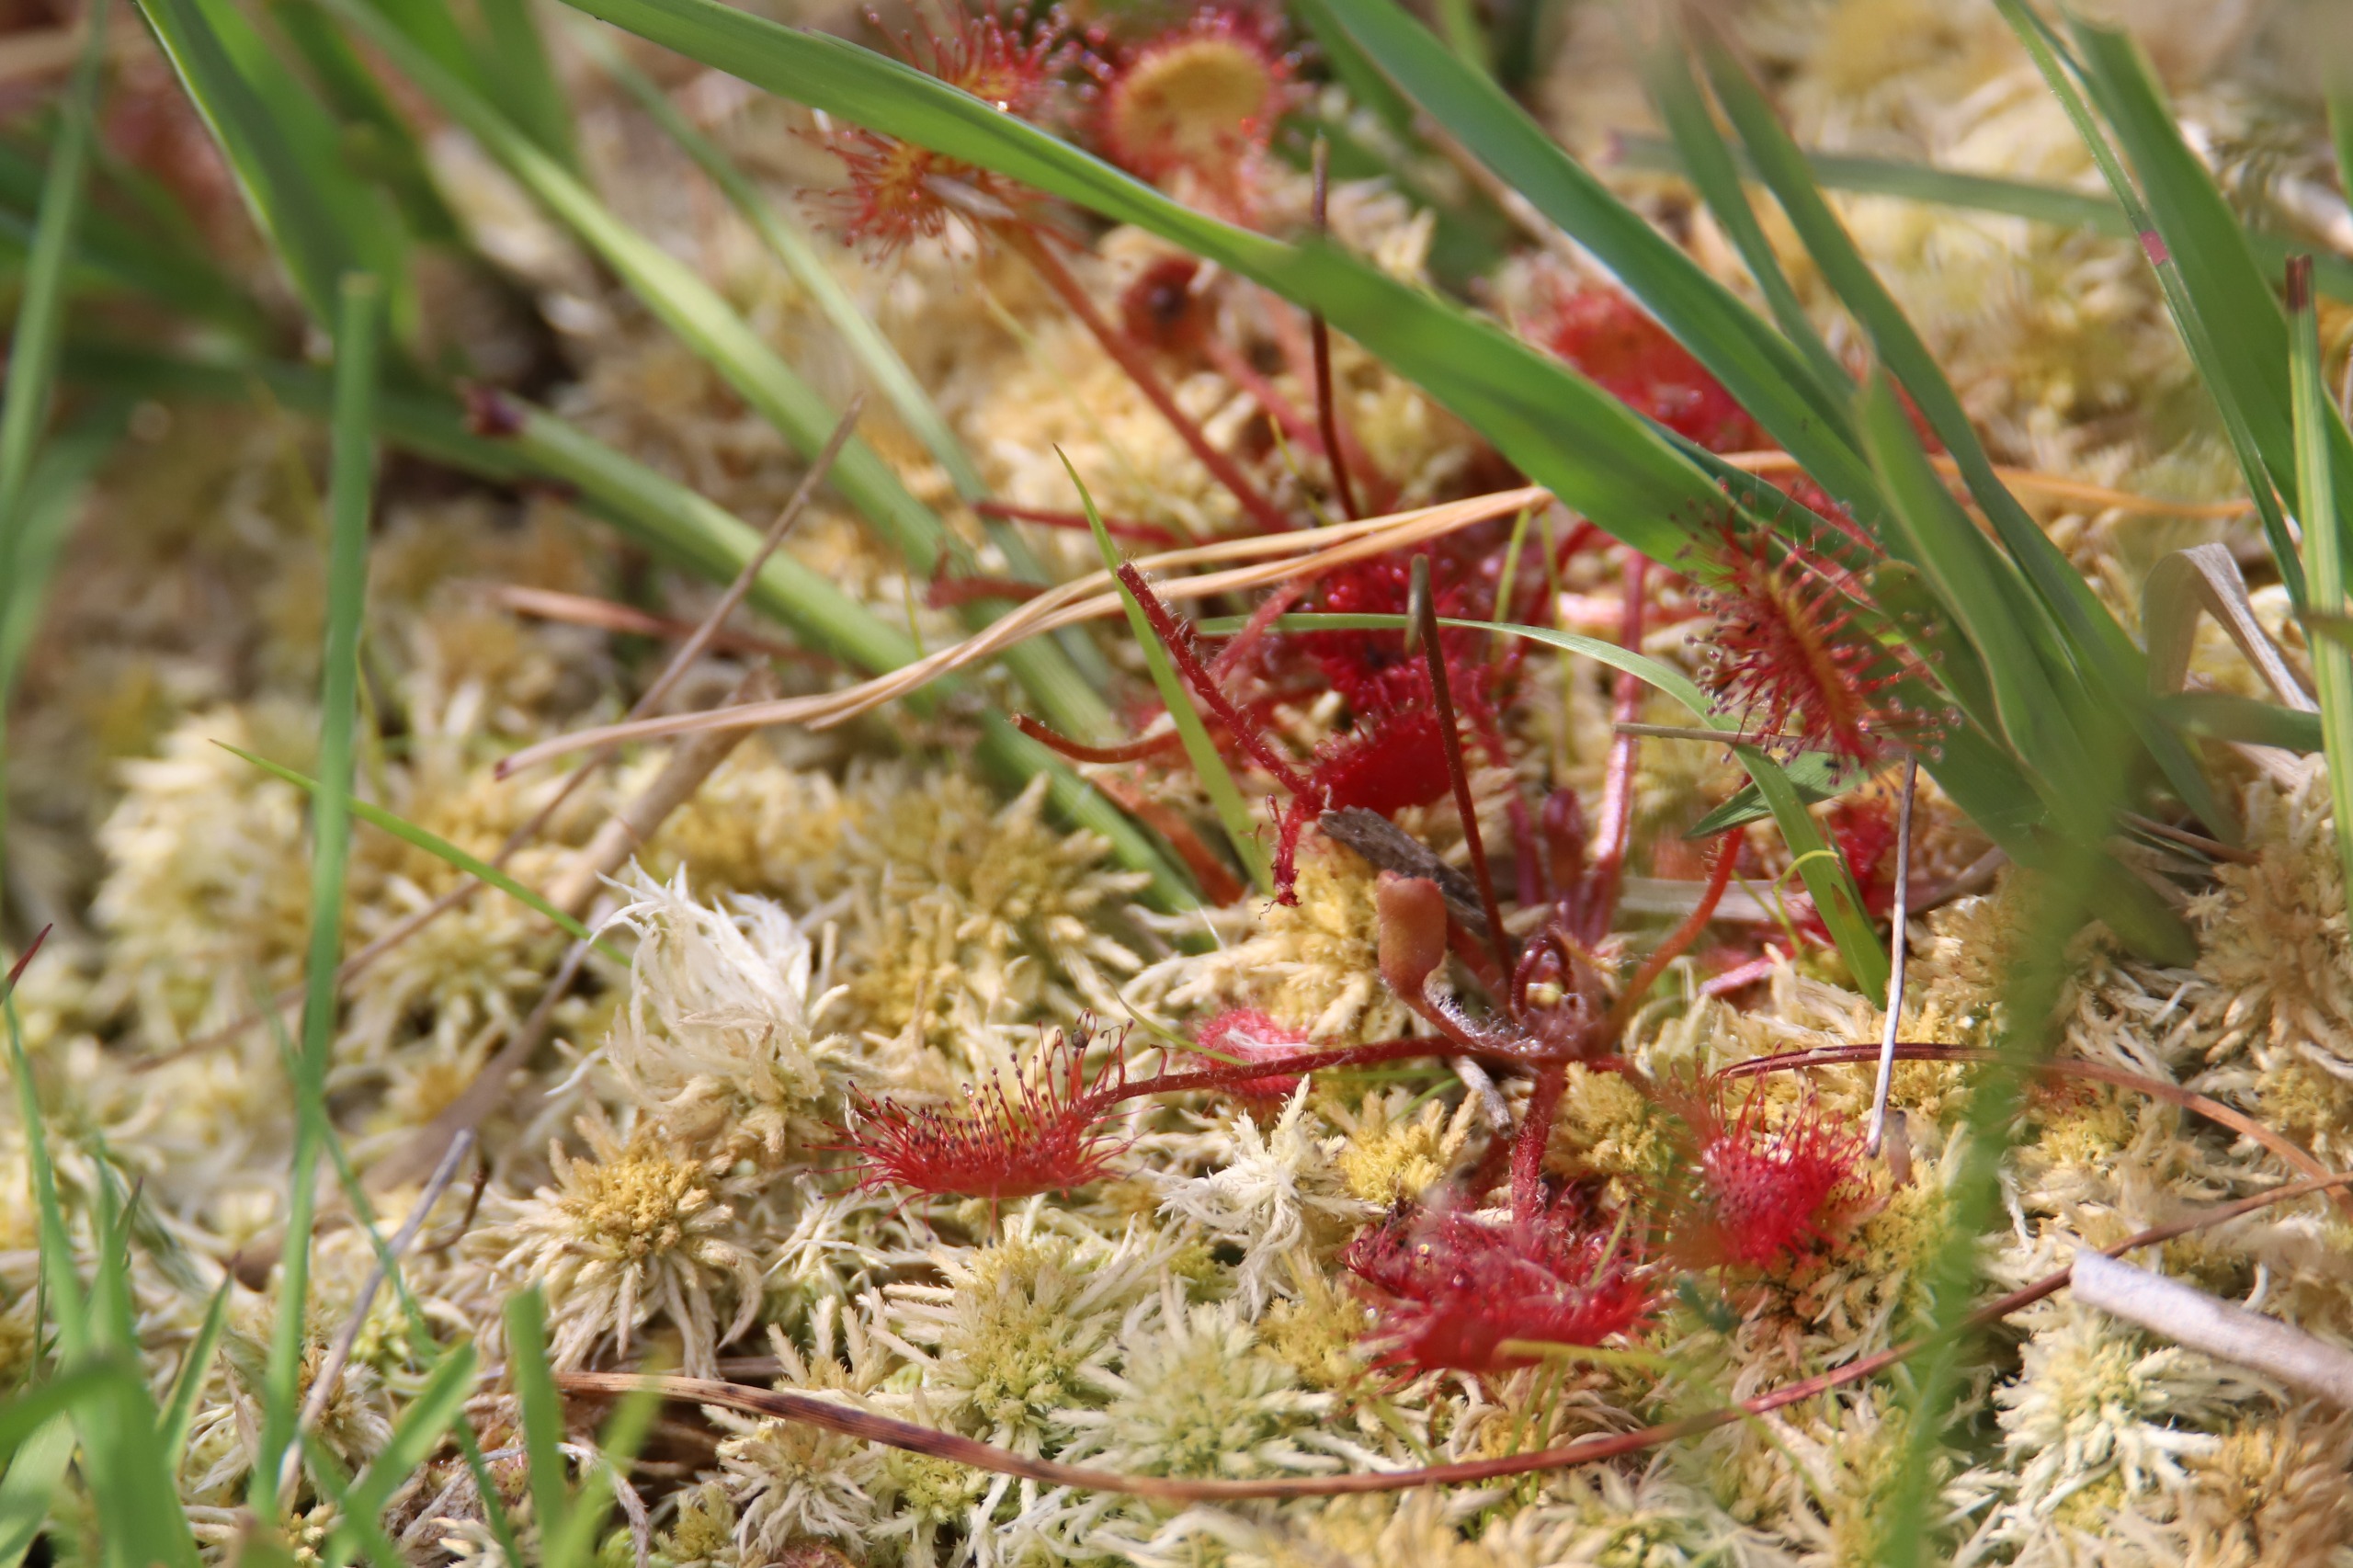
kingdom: Plantae
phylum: Tracheophyta
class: Magnoliopsida
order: Caryophyllales
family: Droseraceae
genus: Drosera
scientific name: Drosera rotundifolia
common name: Rundbladet soldug
